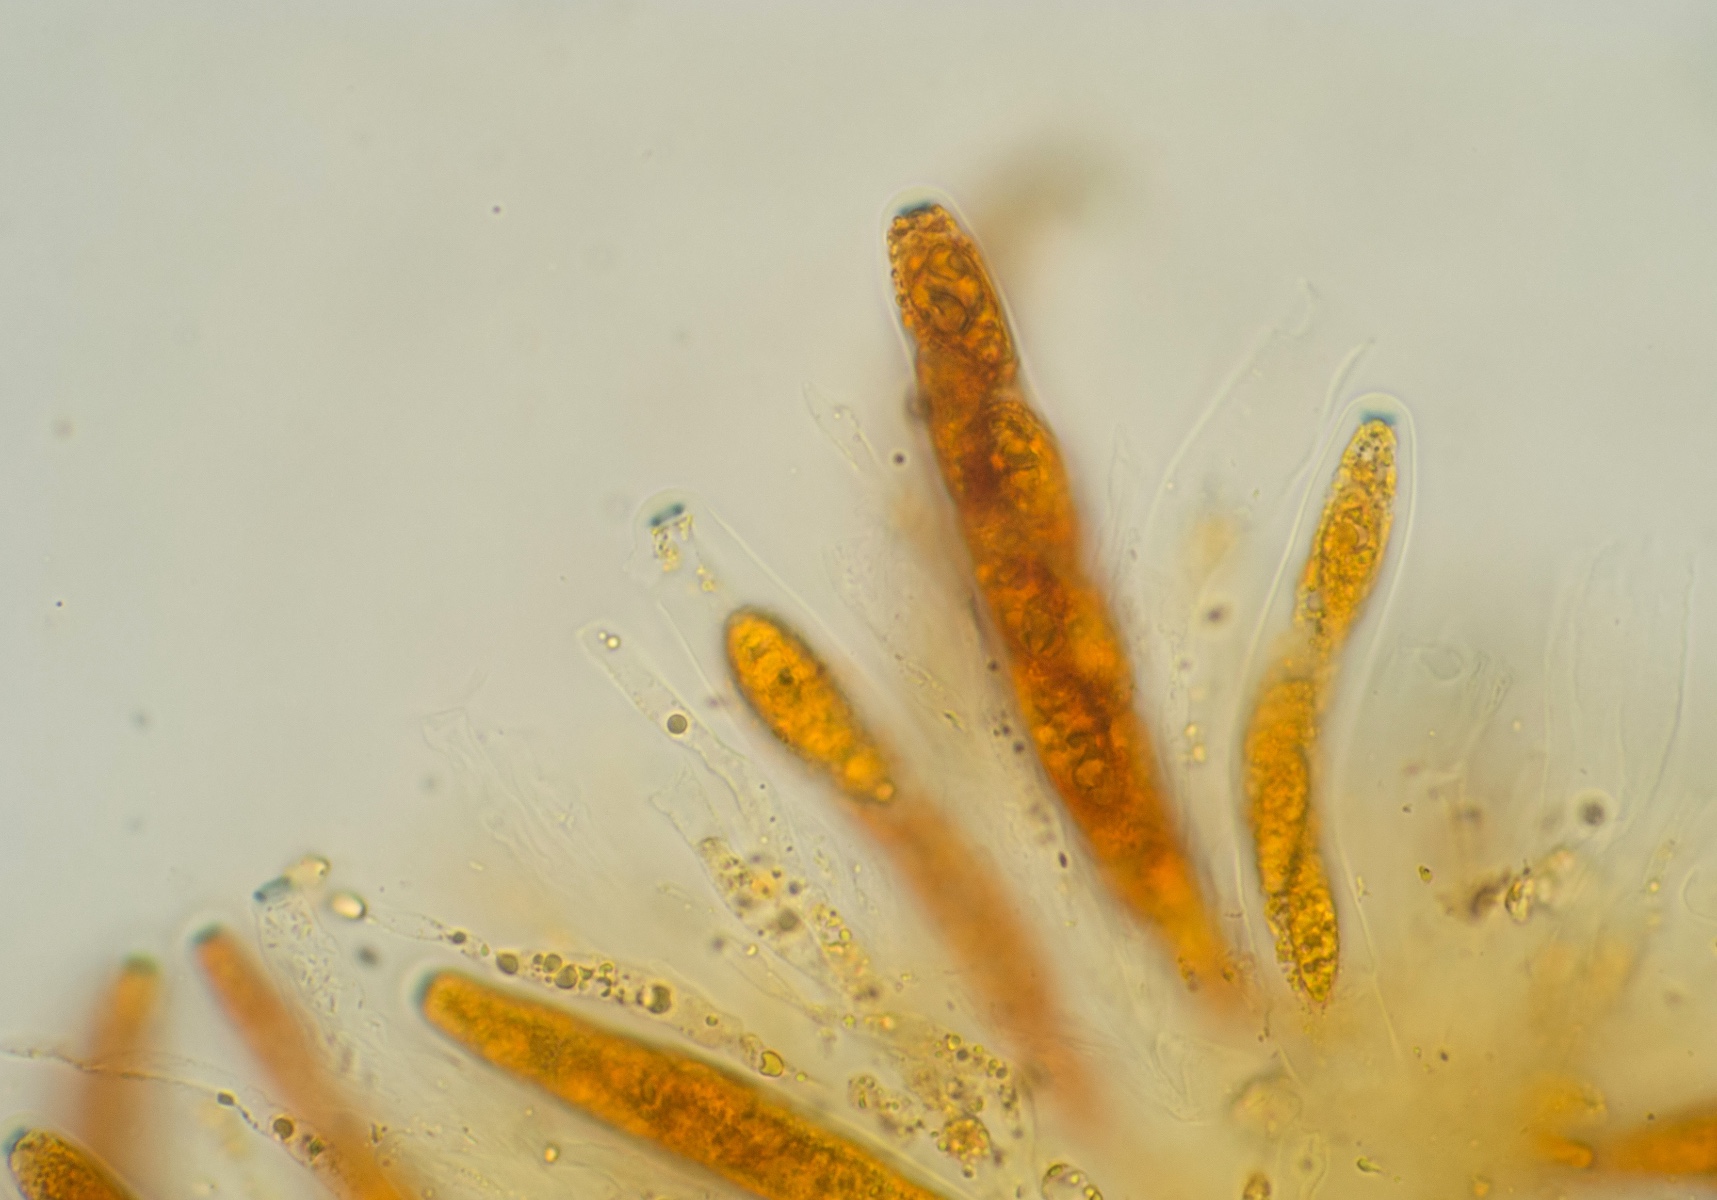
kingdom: Fungi
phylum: Ascomycota
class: Sordariomycetes
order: Xylariales
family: Pseudomassariaceae
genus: Pseudomassaria
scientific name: Pseudomassaria sepincoliformis
